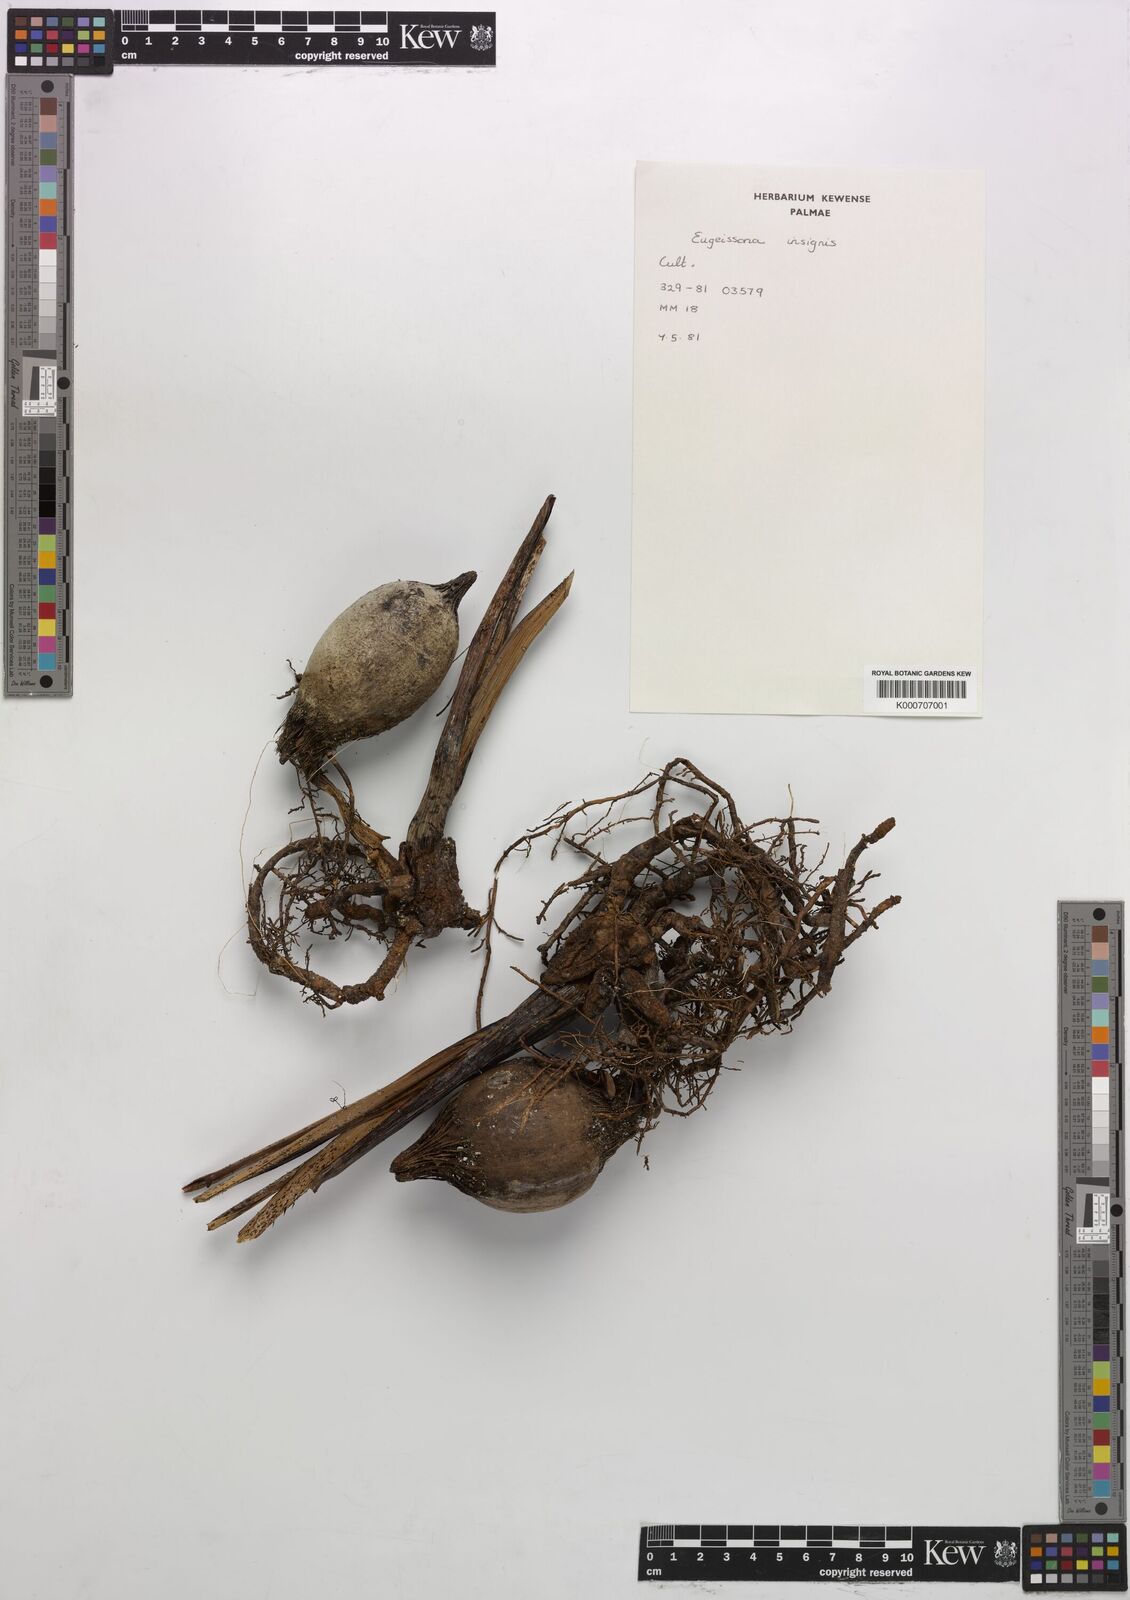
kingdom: Plantae
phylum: Tracheophyta
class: Liliopsida
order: Arecales
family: Arecaceae
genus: Eugeissona
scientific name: Eugeissona insignis
